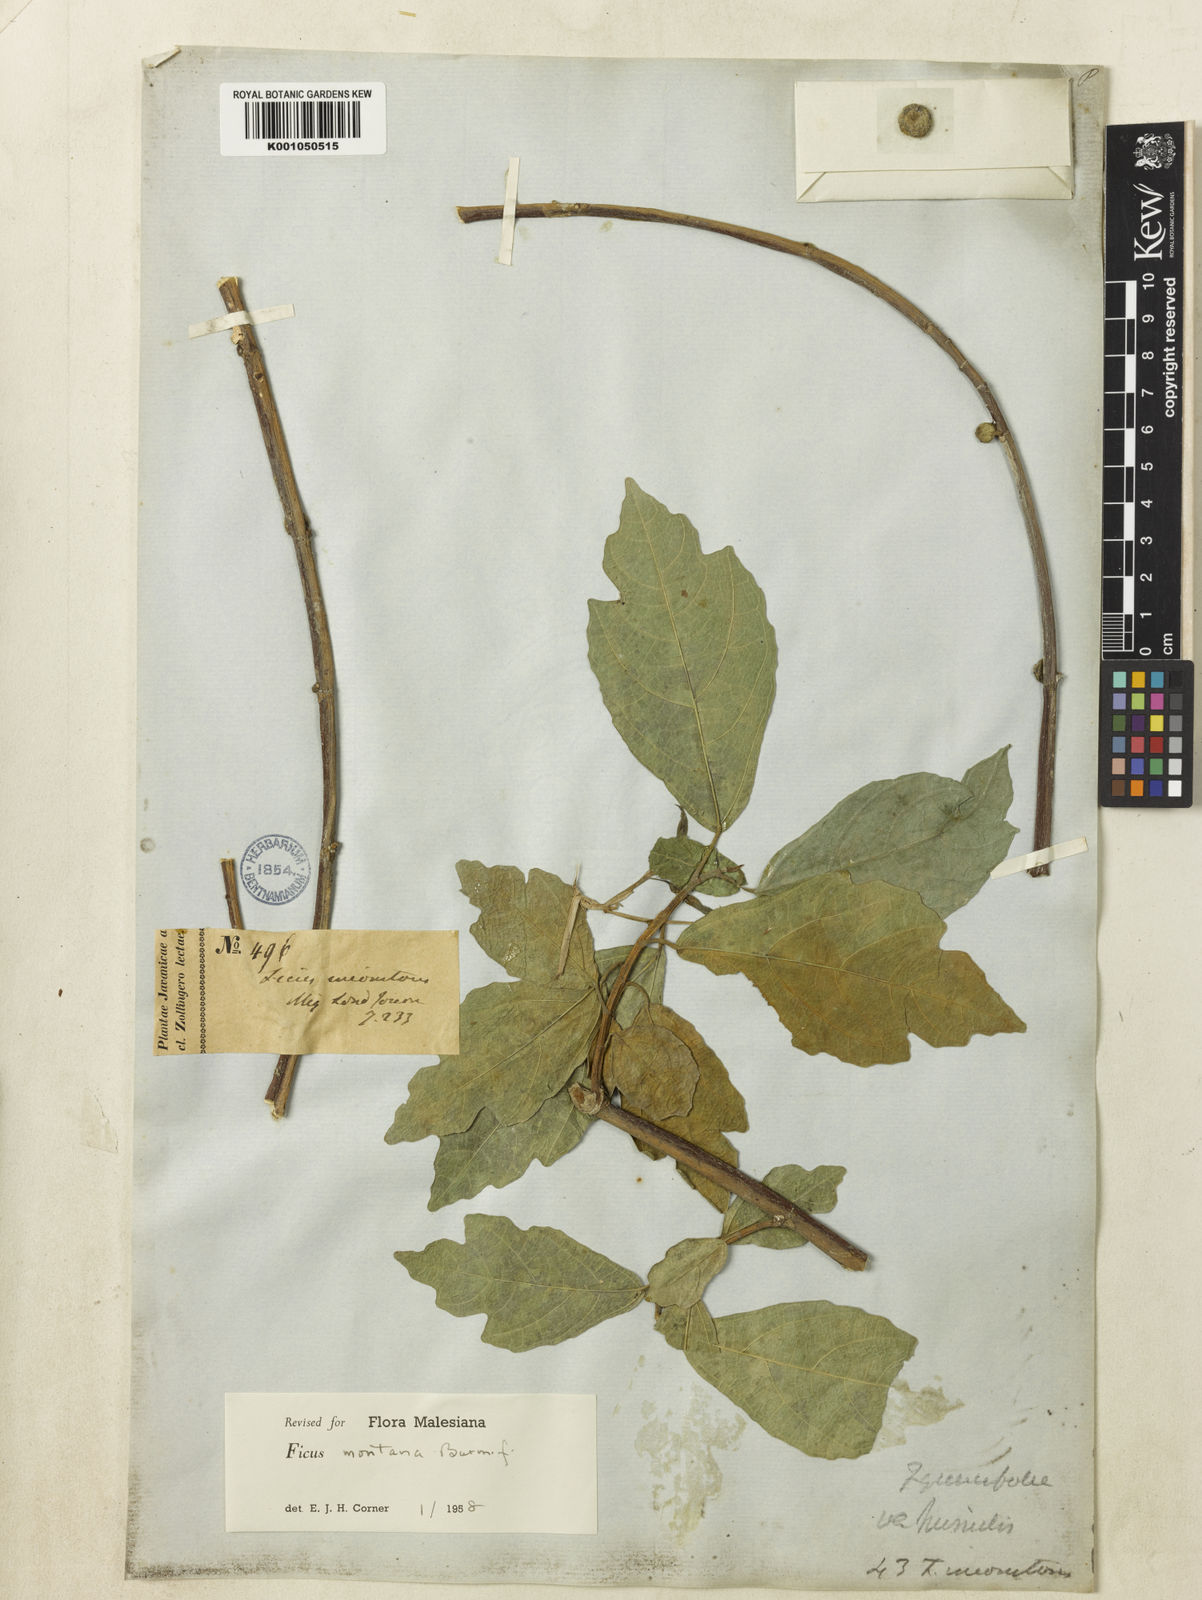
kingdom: Plantae
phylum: Tracheophyta
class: Magnoliopsida
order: Rosales
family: Moraceae
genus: Ficus
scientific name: Ficus copiosa
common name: Plentiful fig
